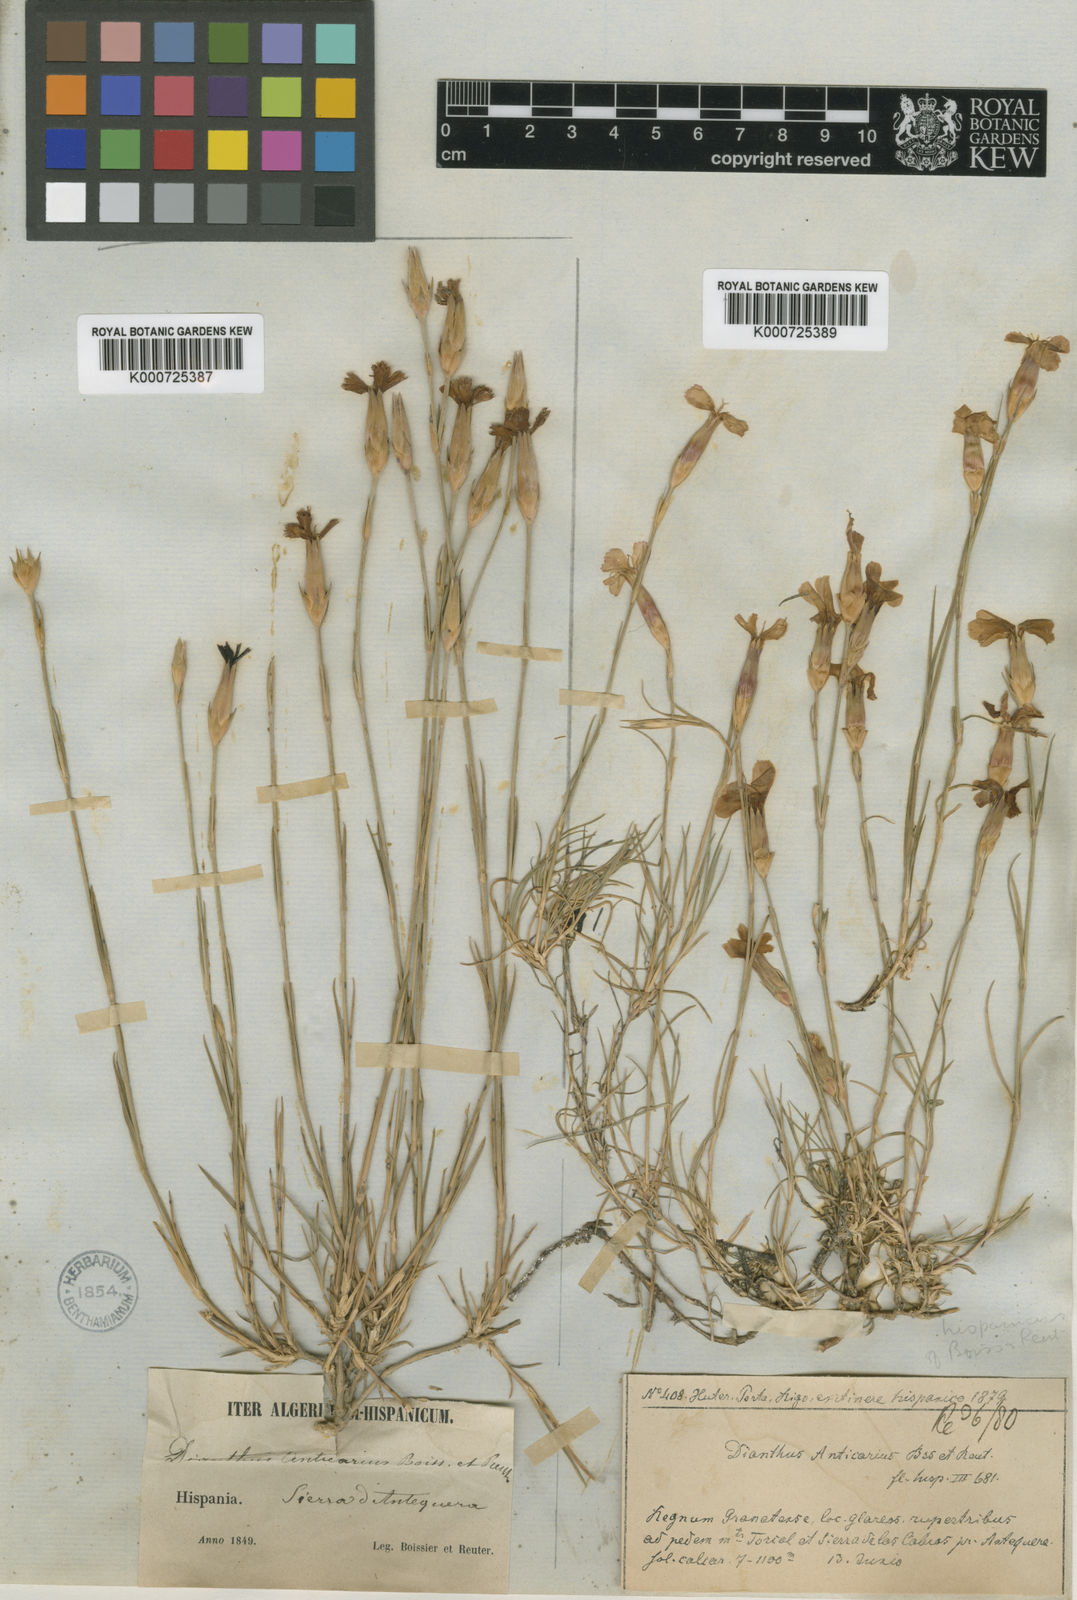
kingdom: Plantae
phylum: Tracheophyta
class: Magnoliopsida
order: Caryophyllales
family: Caryophyllaceae
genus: Dianthus
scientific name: Dianthus anticarius
